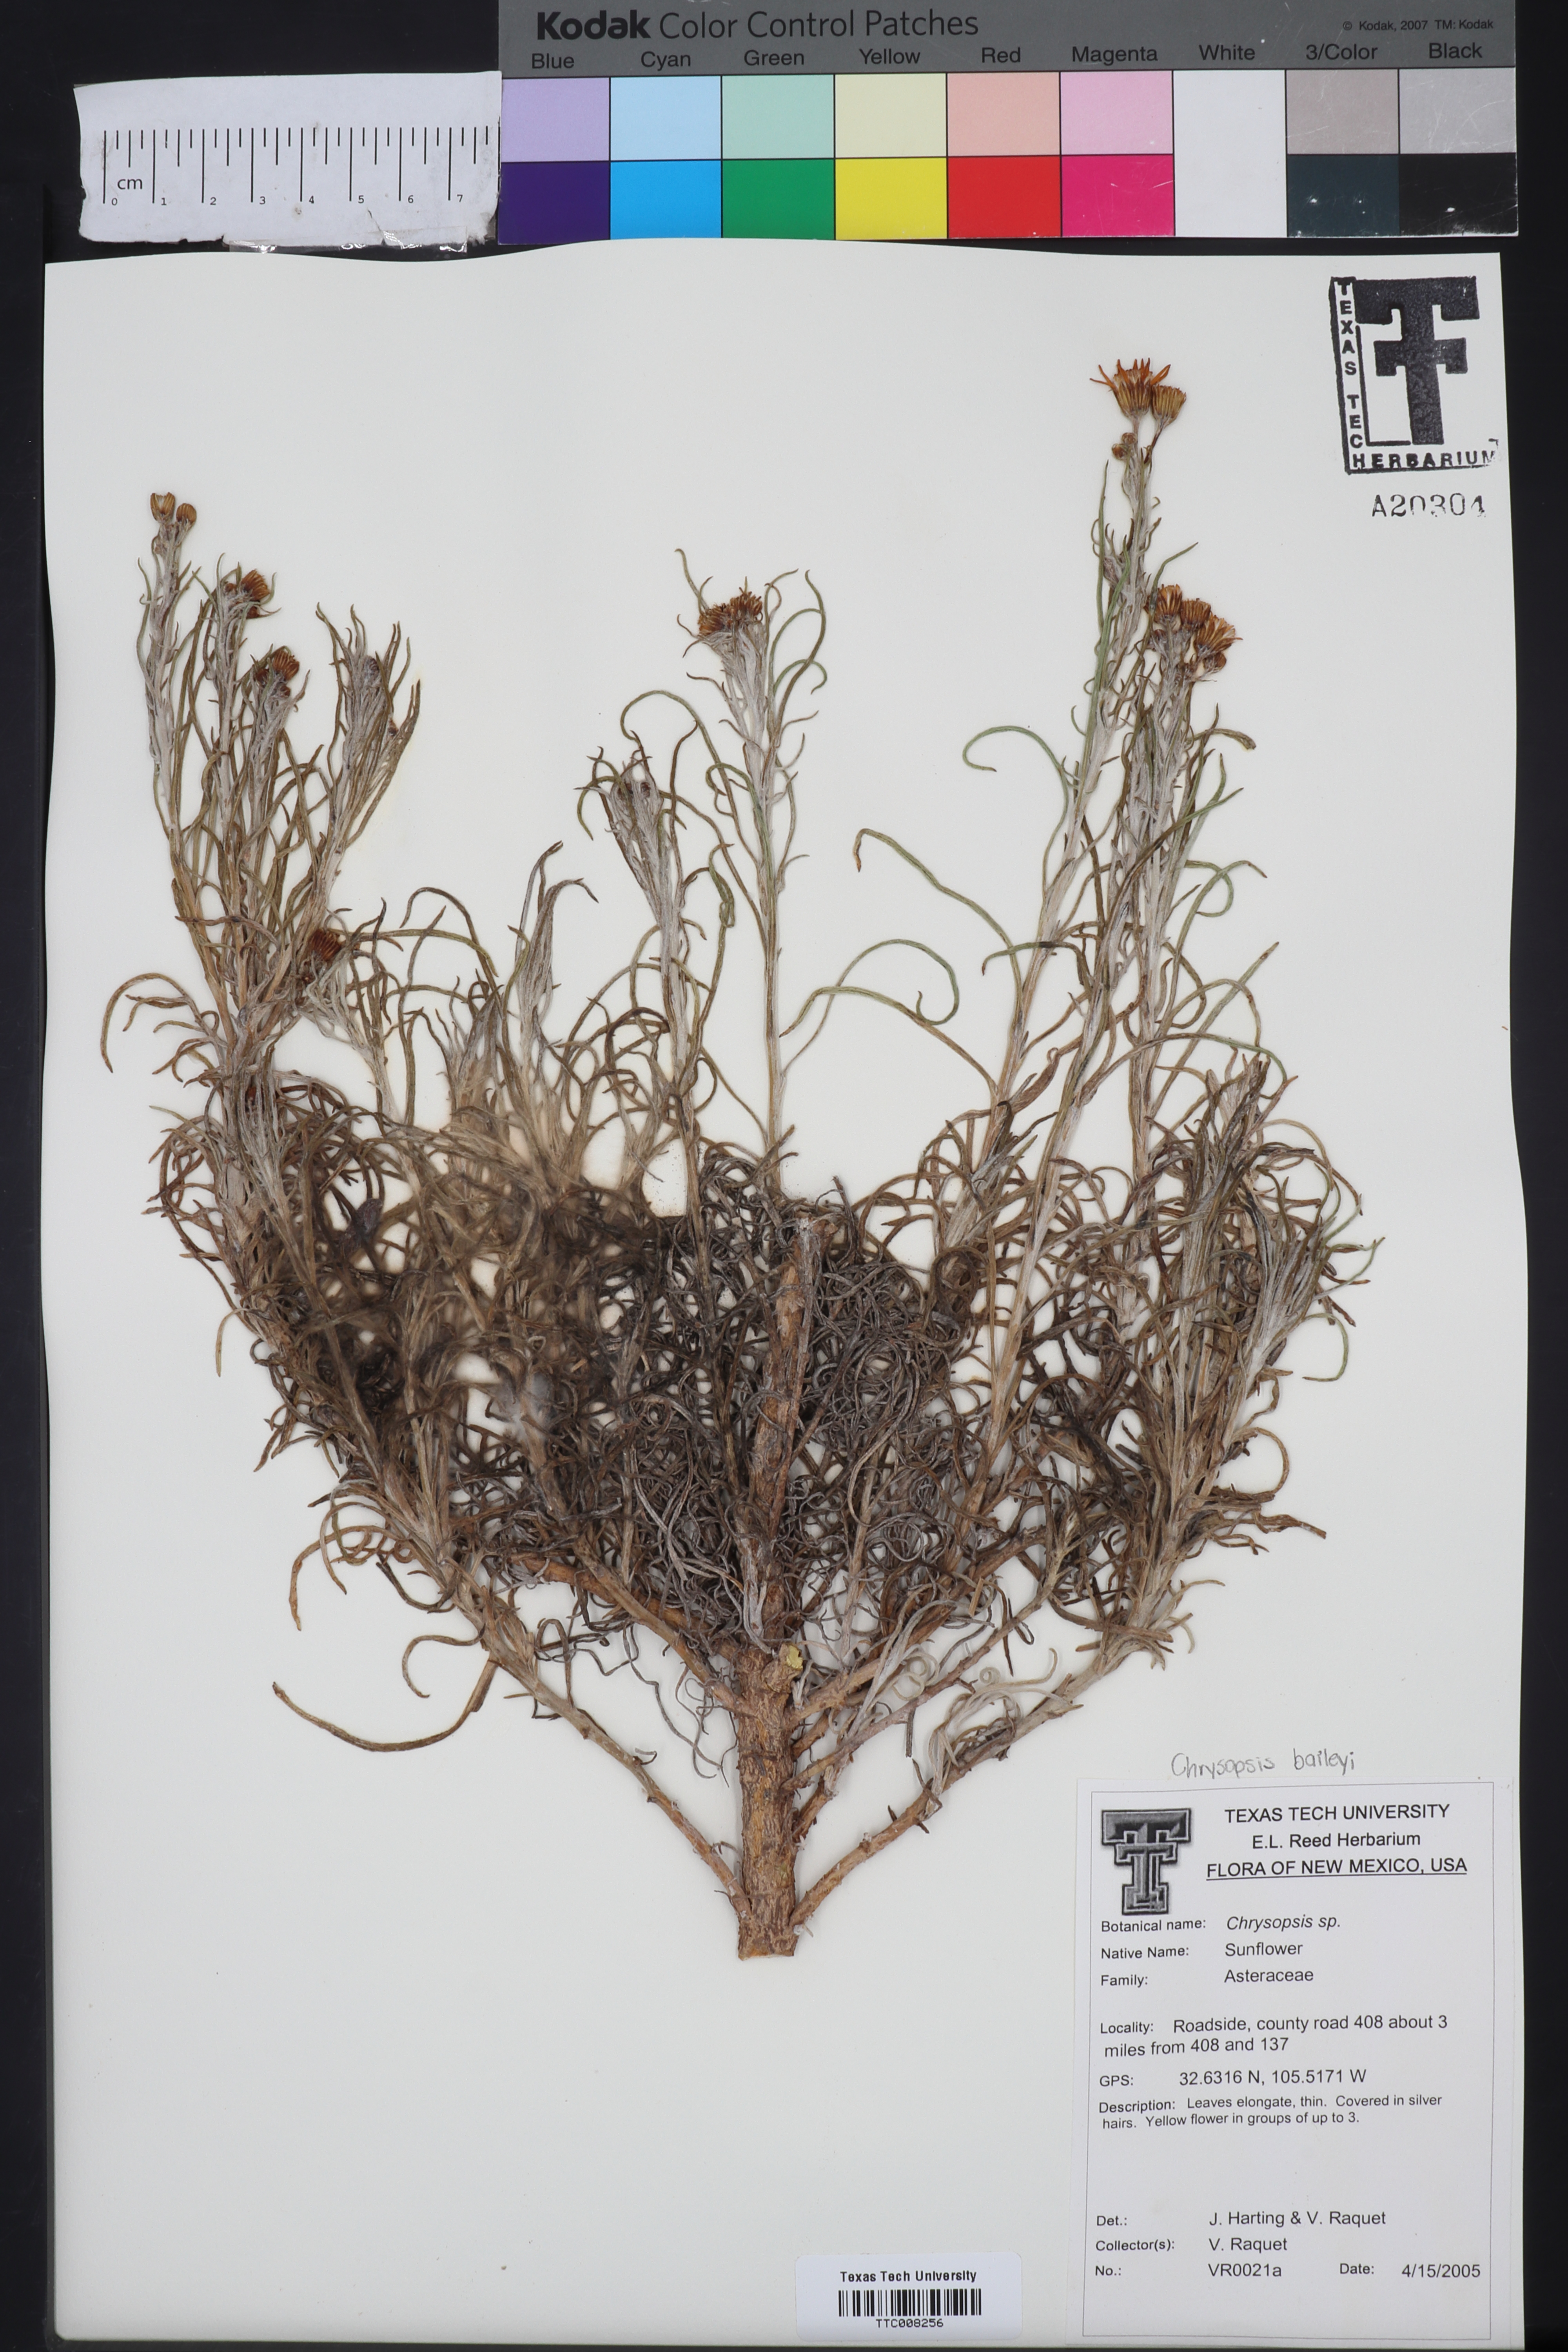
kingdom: Plantae
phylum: Tracheophyta
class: Magnoliopsida
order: Asterales
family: Asteraceae
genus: Chrysopsis
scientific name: Chrysopsis
